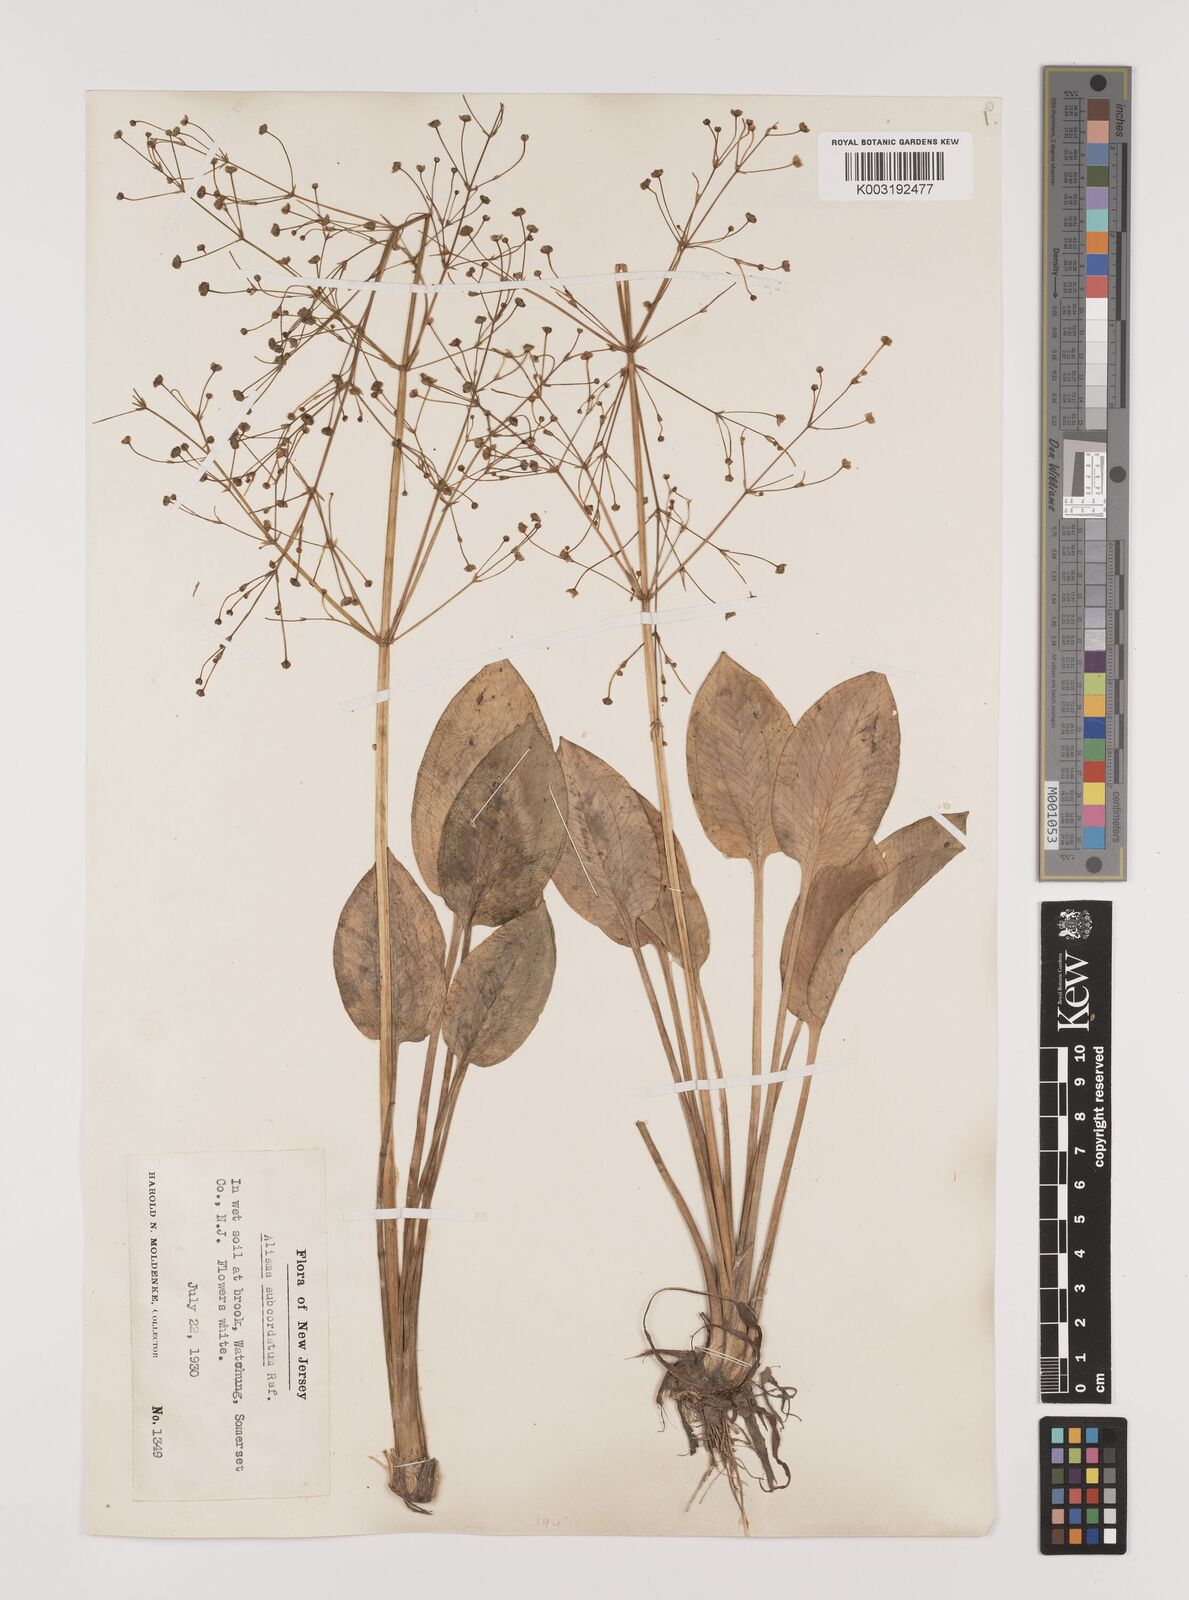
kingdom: Plantae
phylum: Tracheophyta
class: Liliopsida
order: Alismatales
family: Alismataceae
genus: Alisma
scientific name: Alisma subcordatum
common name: Southern water-plantain
